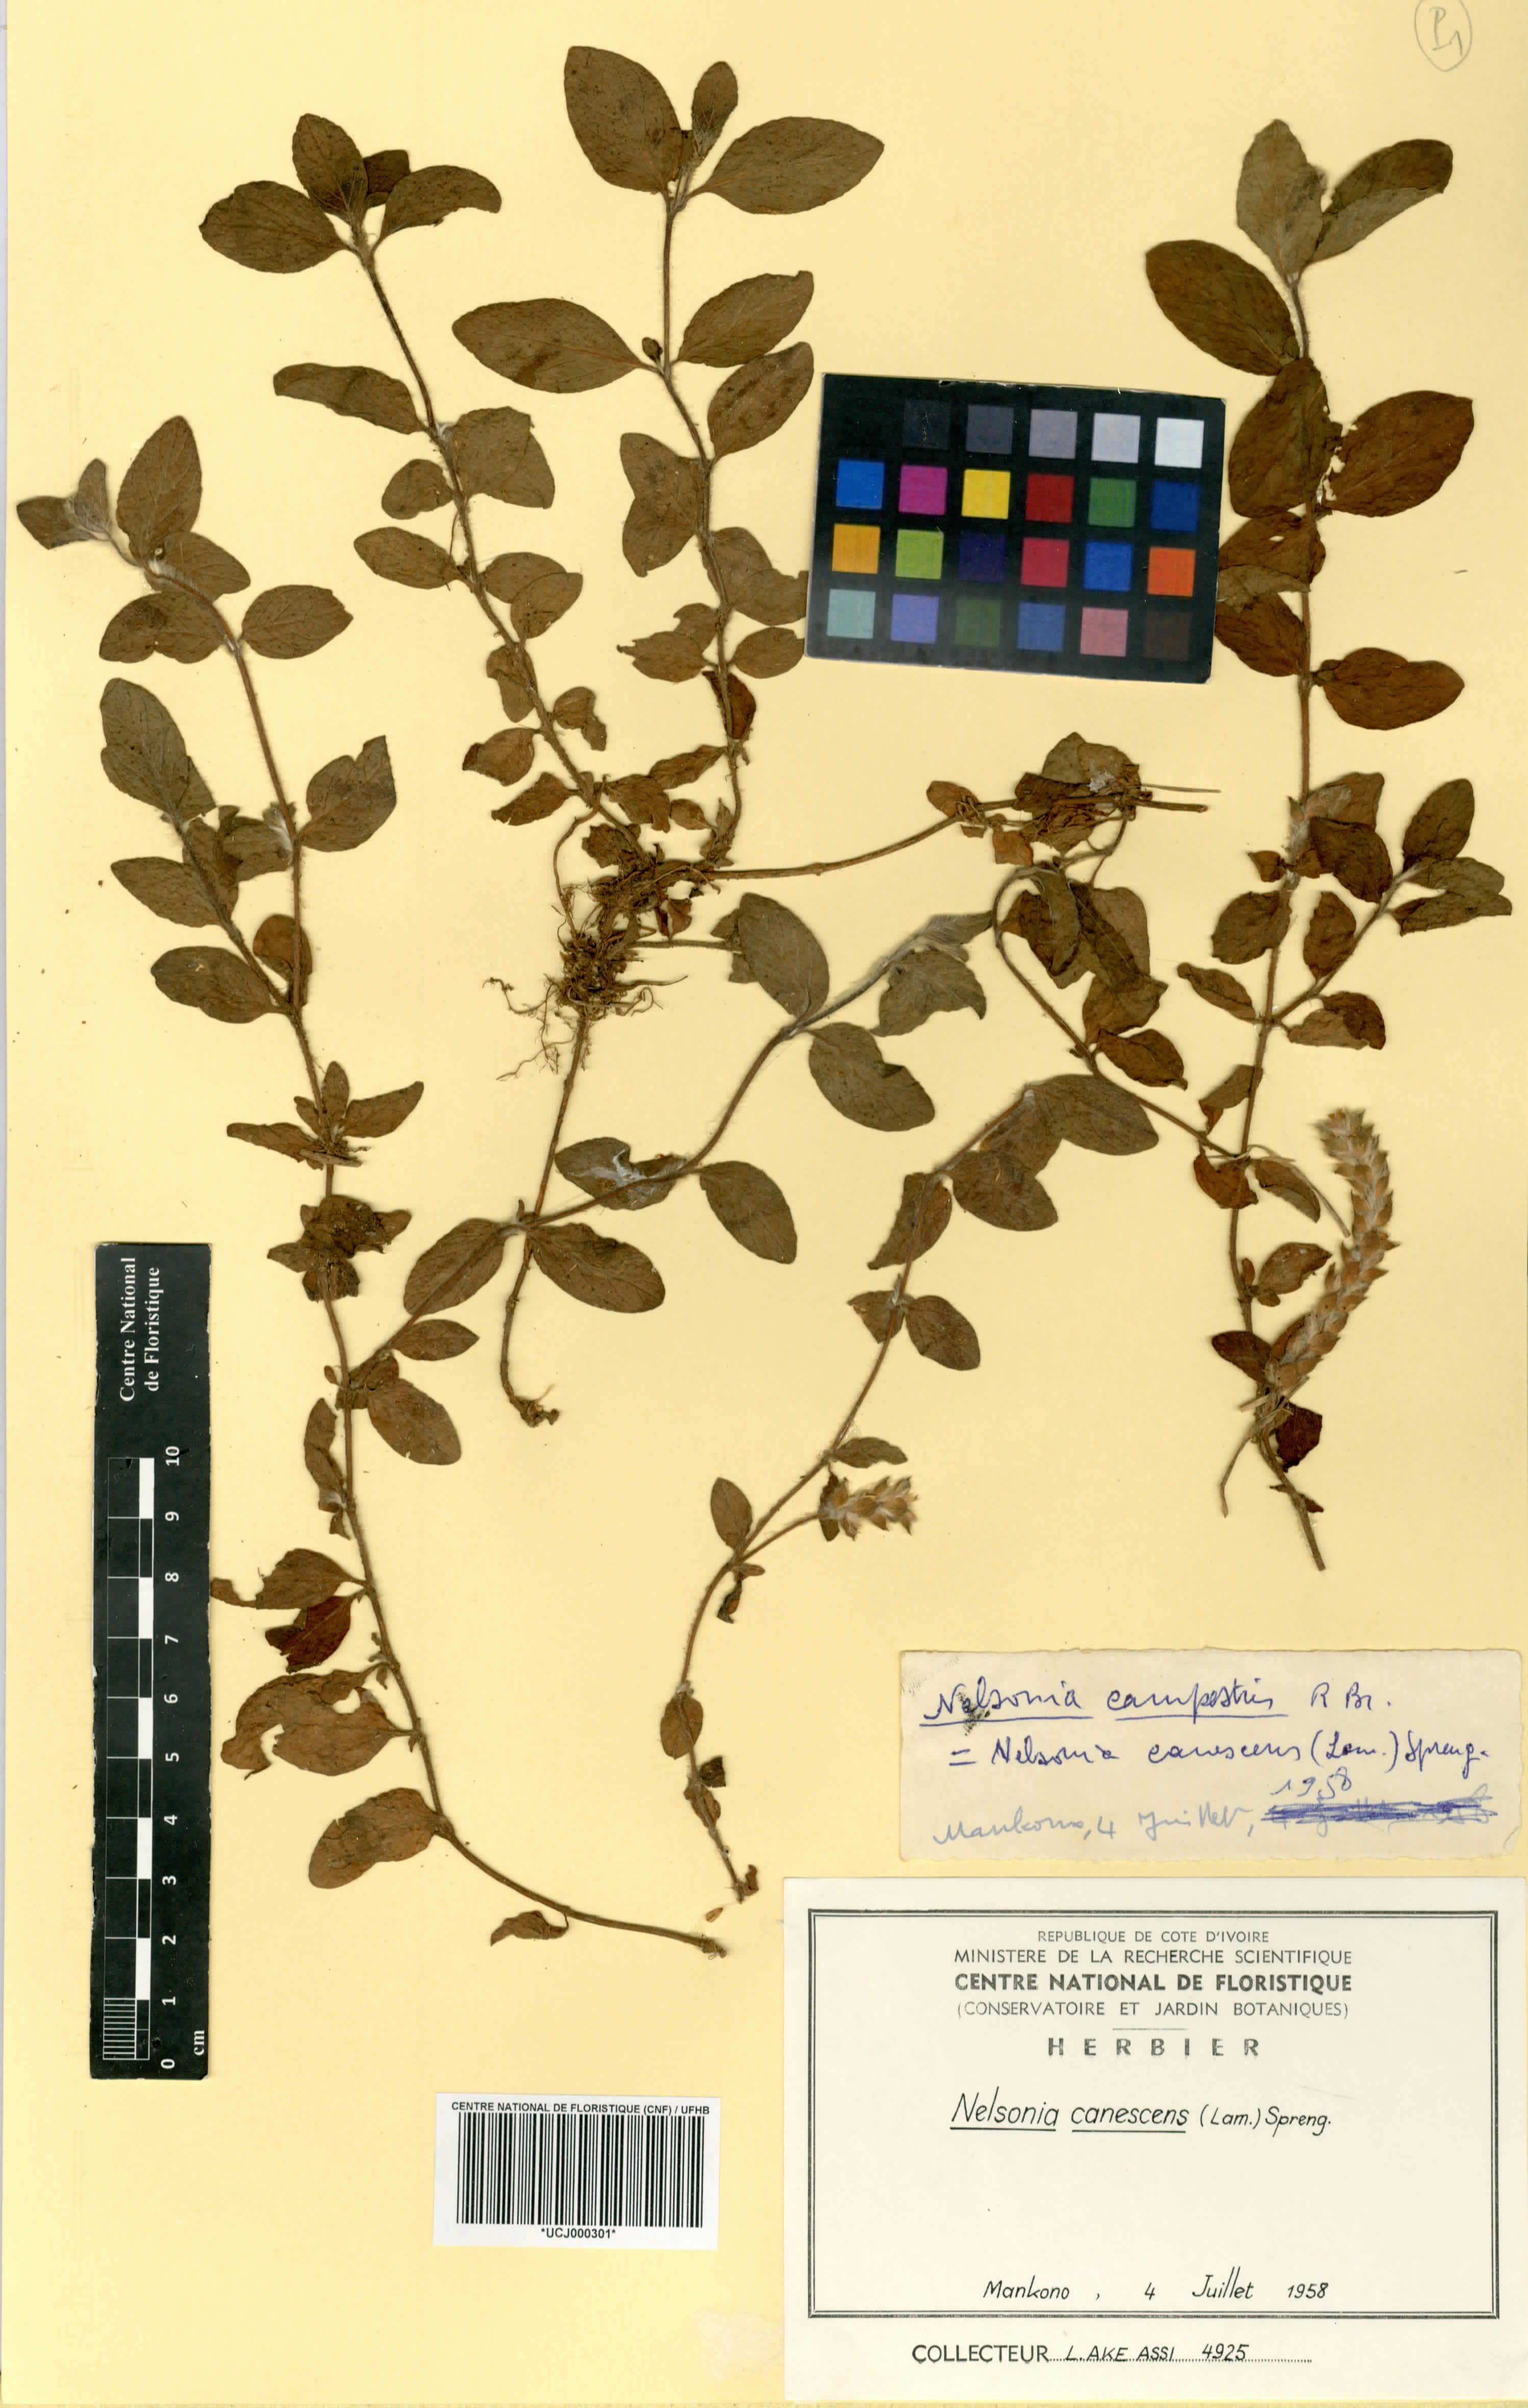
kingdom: Plantae
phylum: Tracheophyta
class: Magnoliopsida
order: Lamiales
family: Acanthaceae
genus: Nelsonia
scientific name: Nelsonia canescens
